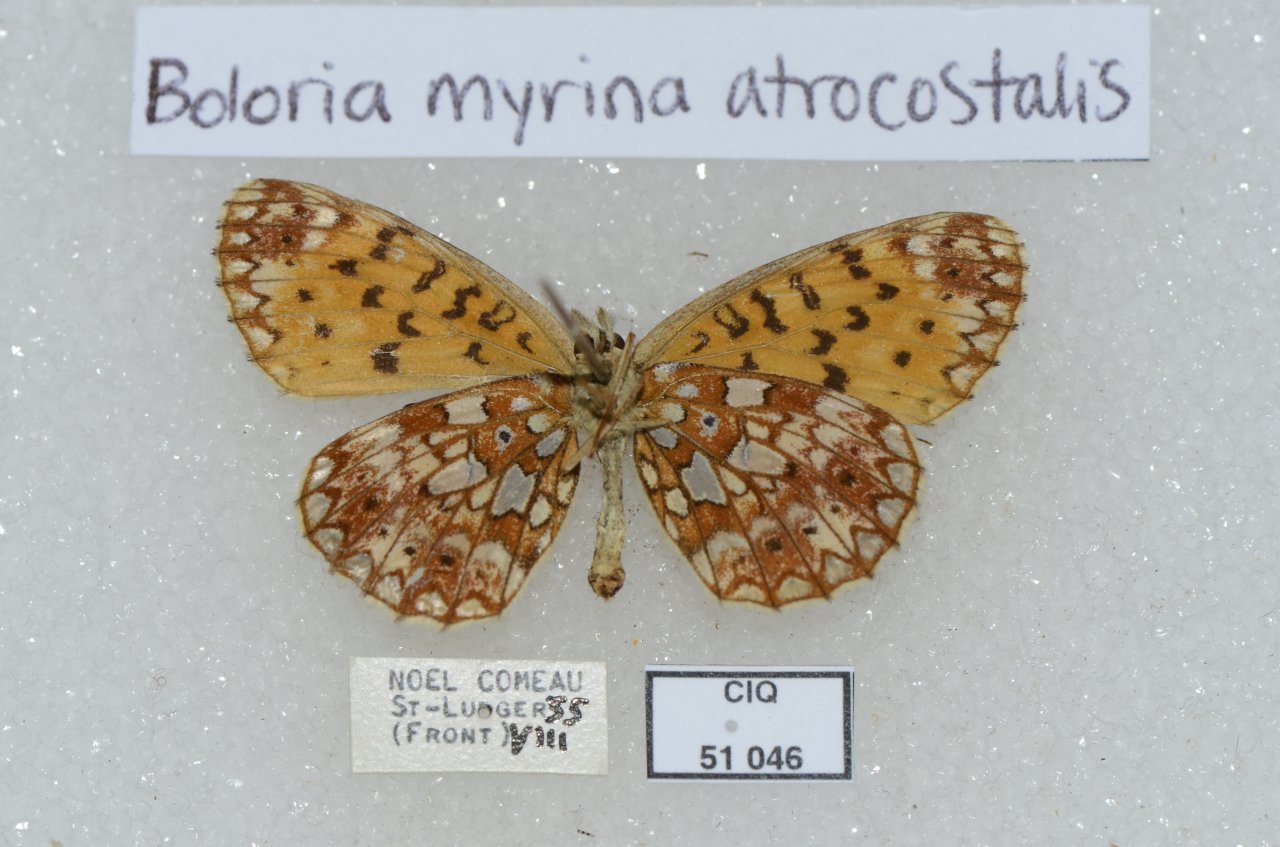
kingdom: Animalia
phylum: Arthropoda
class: Insecta
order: Lepidoptera
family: Nymphalidae
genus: Boloria
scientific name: Boloria selene
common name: Silver-bordered Fritillary
